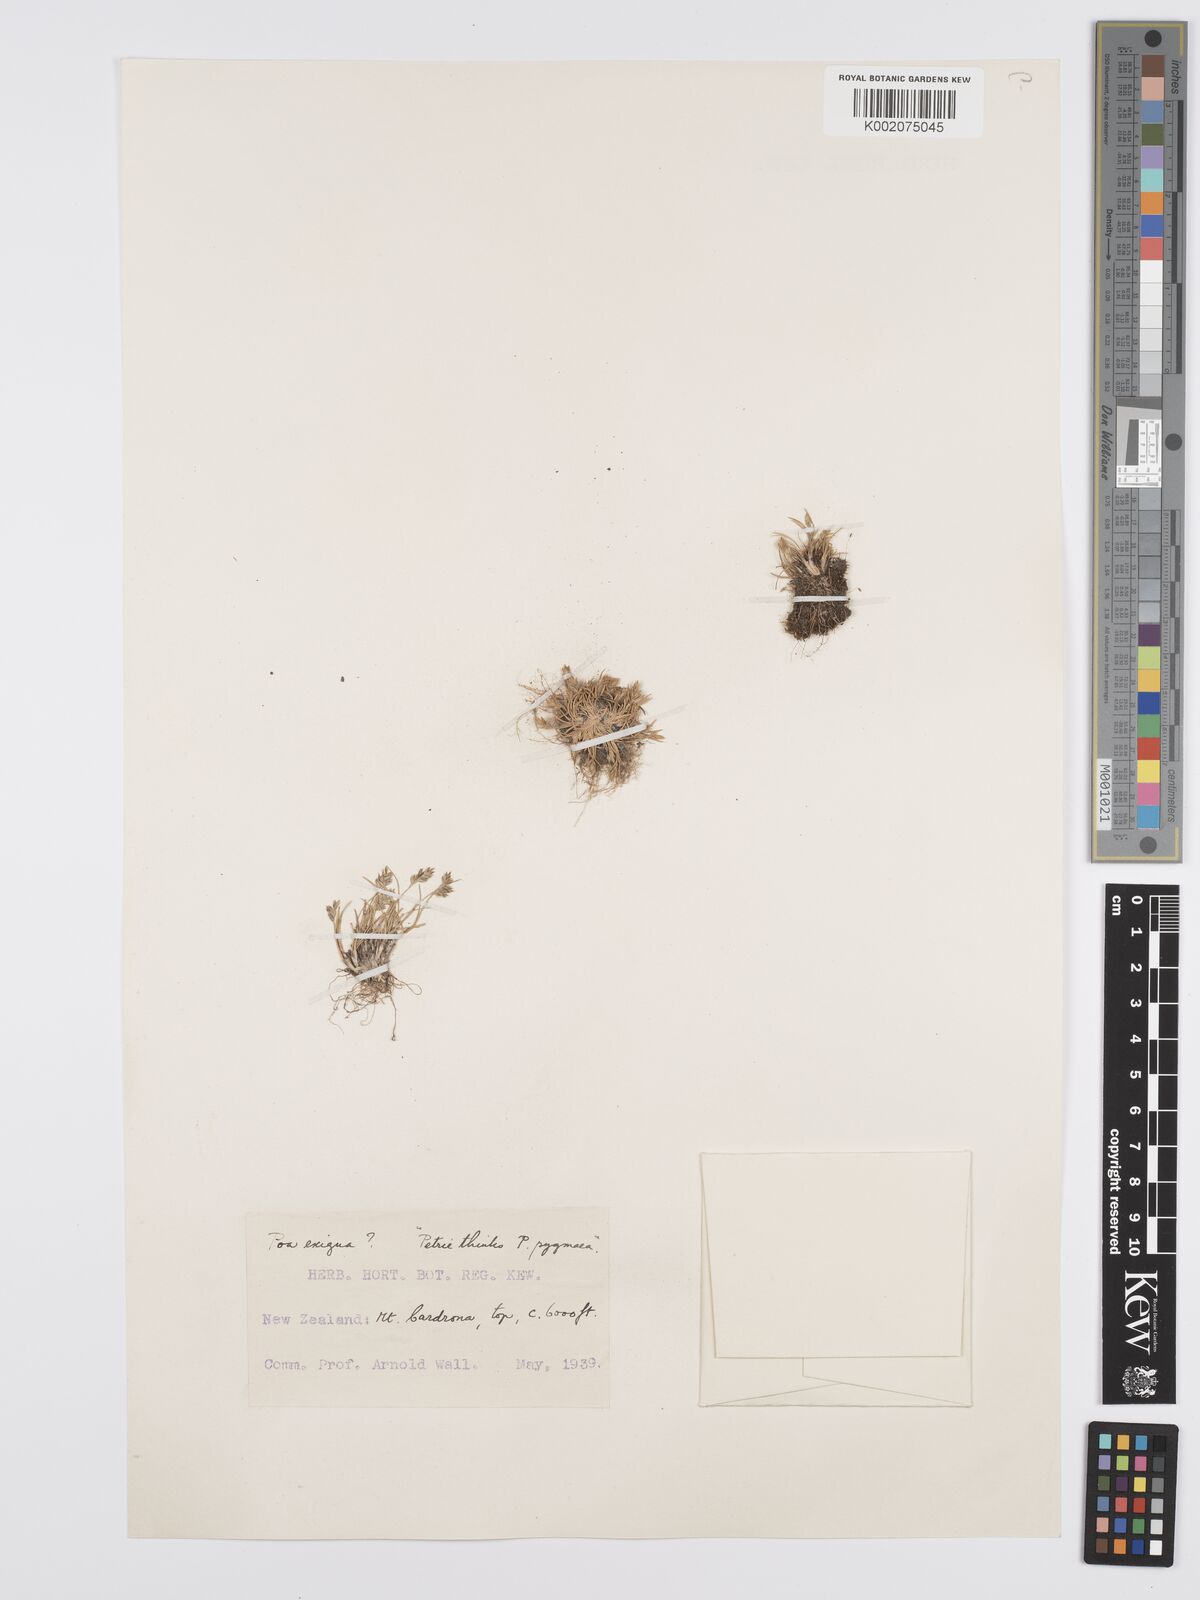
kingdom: Plantae
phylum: Tracheophyta
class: Liliopsida
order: Poales
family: Poaceae
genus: Poa
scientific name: Poa maniototo
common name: Desert poa
